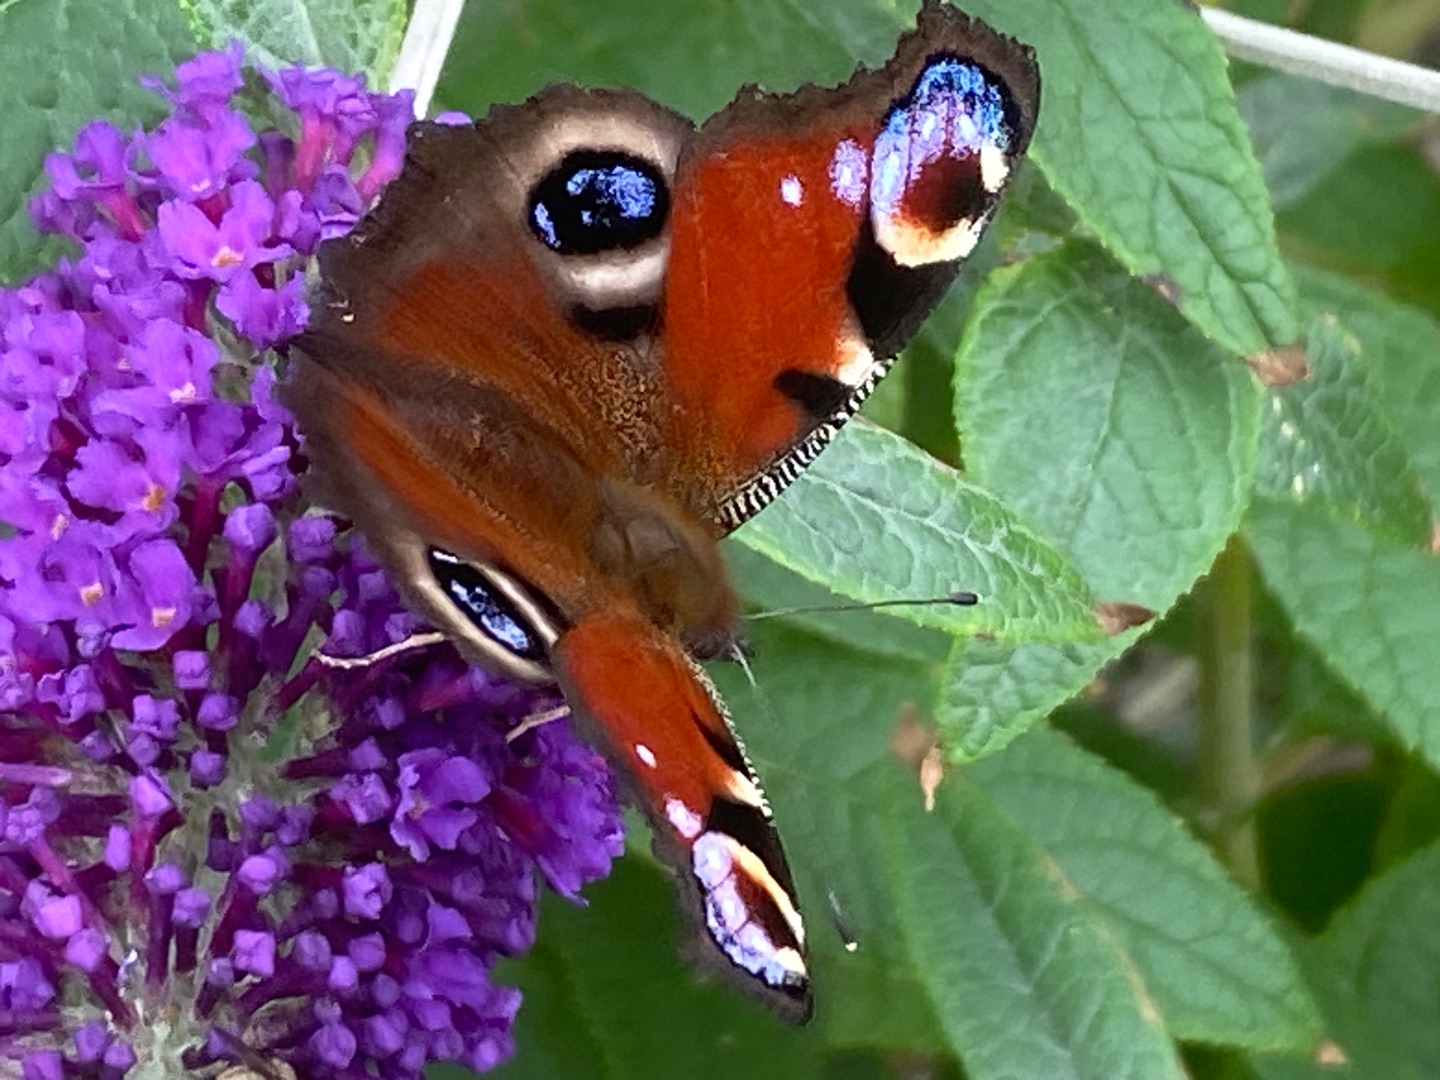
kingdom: Animalia
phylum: Arthropoda
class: Insecta
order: Lepidoptera
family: Nymphalidae
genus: Aglais
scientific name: Aglais io
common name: Dagpåfugleøje
